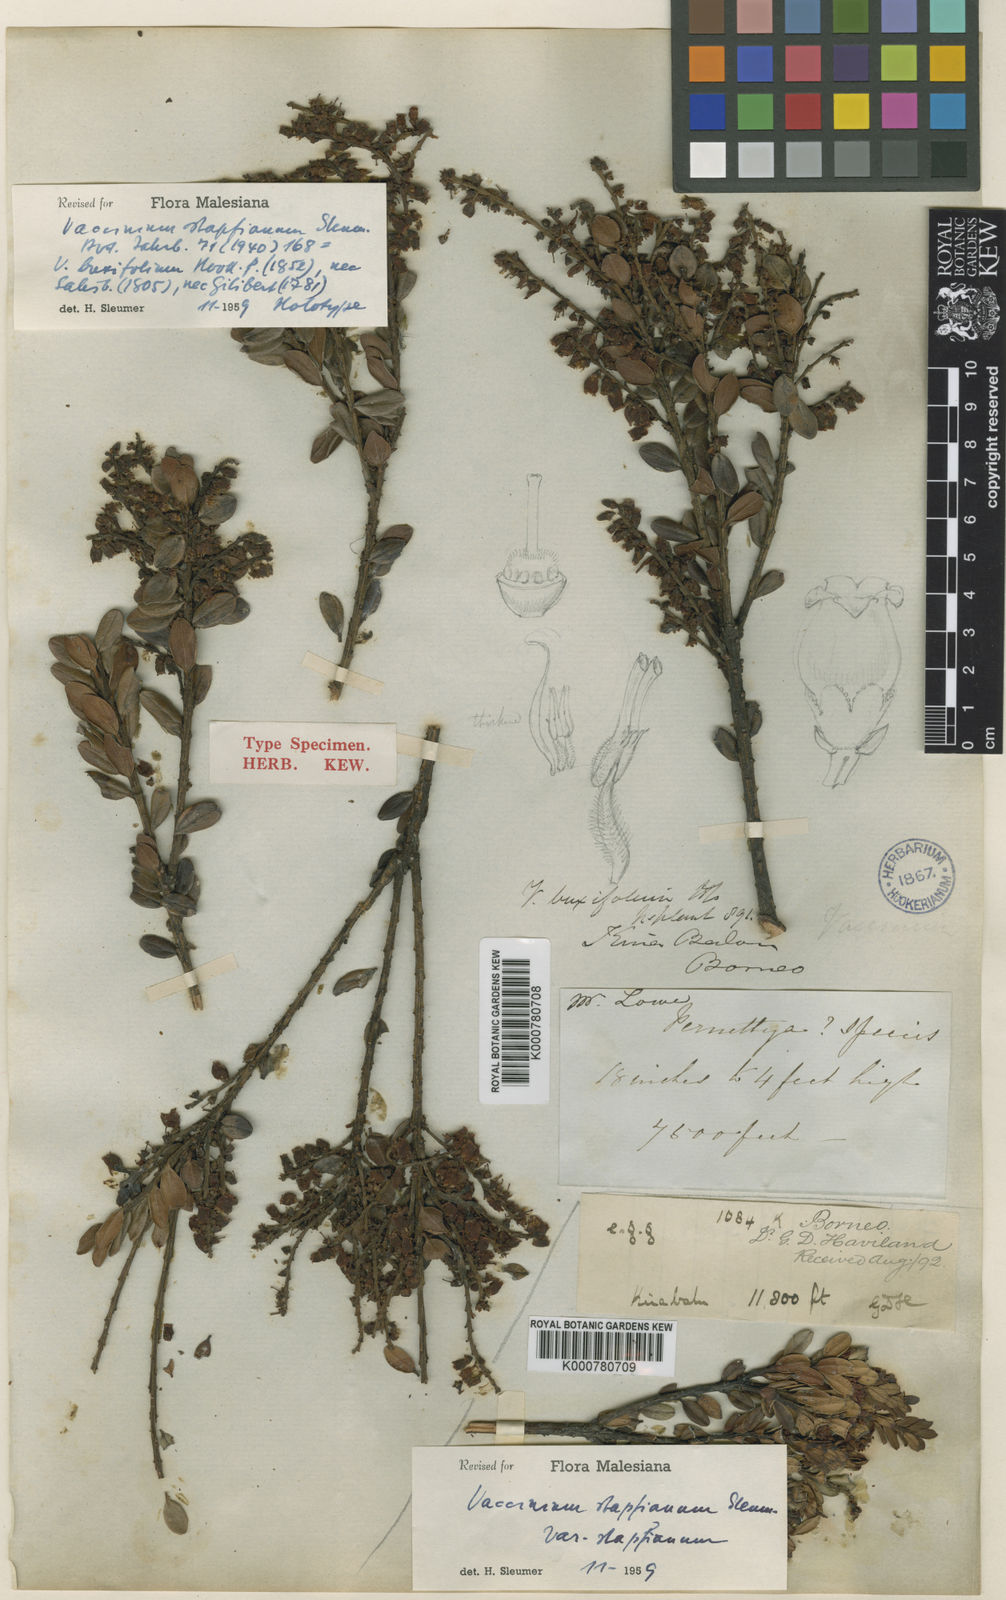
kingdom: Plantae
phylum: Tracheophyta
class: Magnoliopsida
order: Ericales
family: Ericaceae
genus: Vaccinium
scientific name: Vaccinium coriaceum
